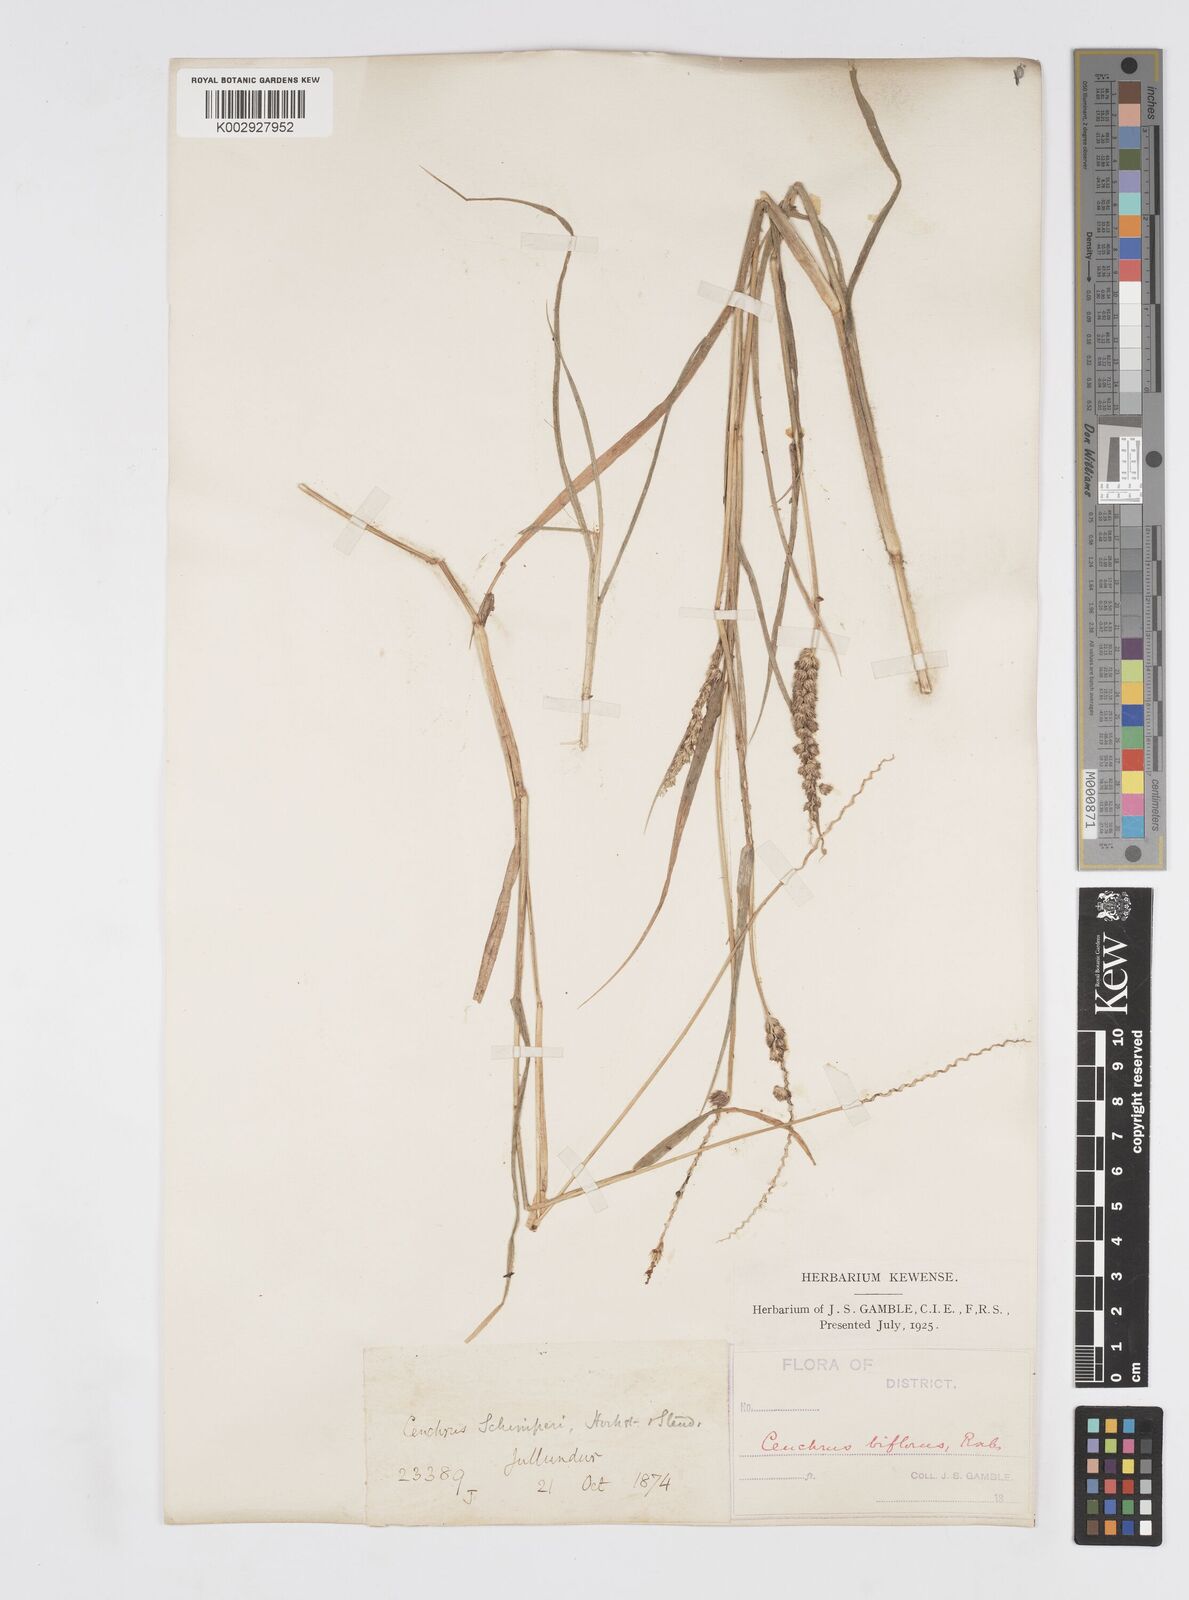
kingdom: Plantae
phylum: Tracheophyta
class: Liliopsida
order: Poales
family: Poaceae
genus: Cenchrus
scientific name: Cenchrus setigerus
